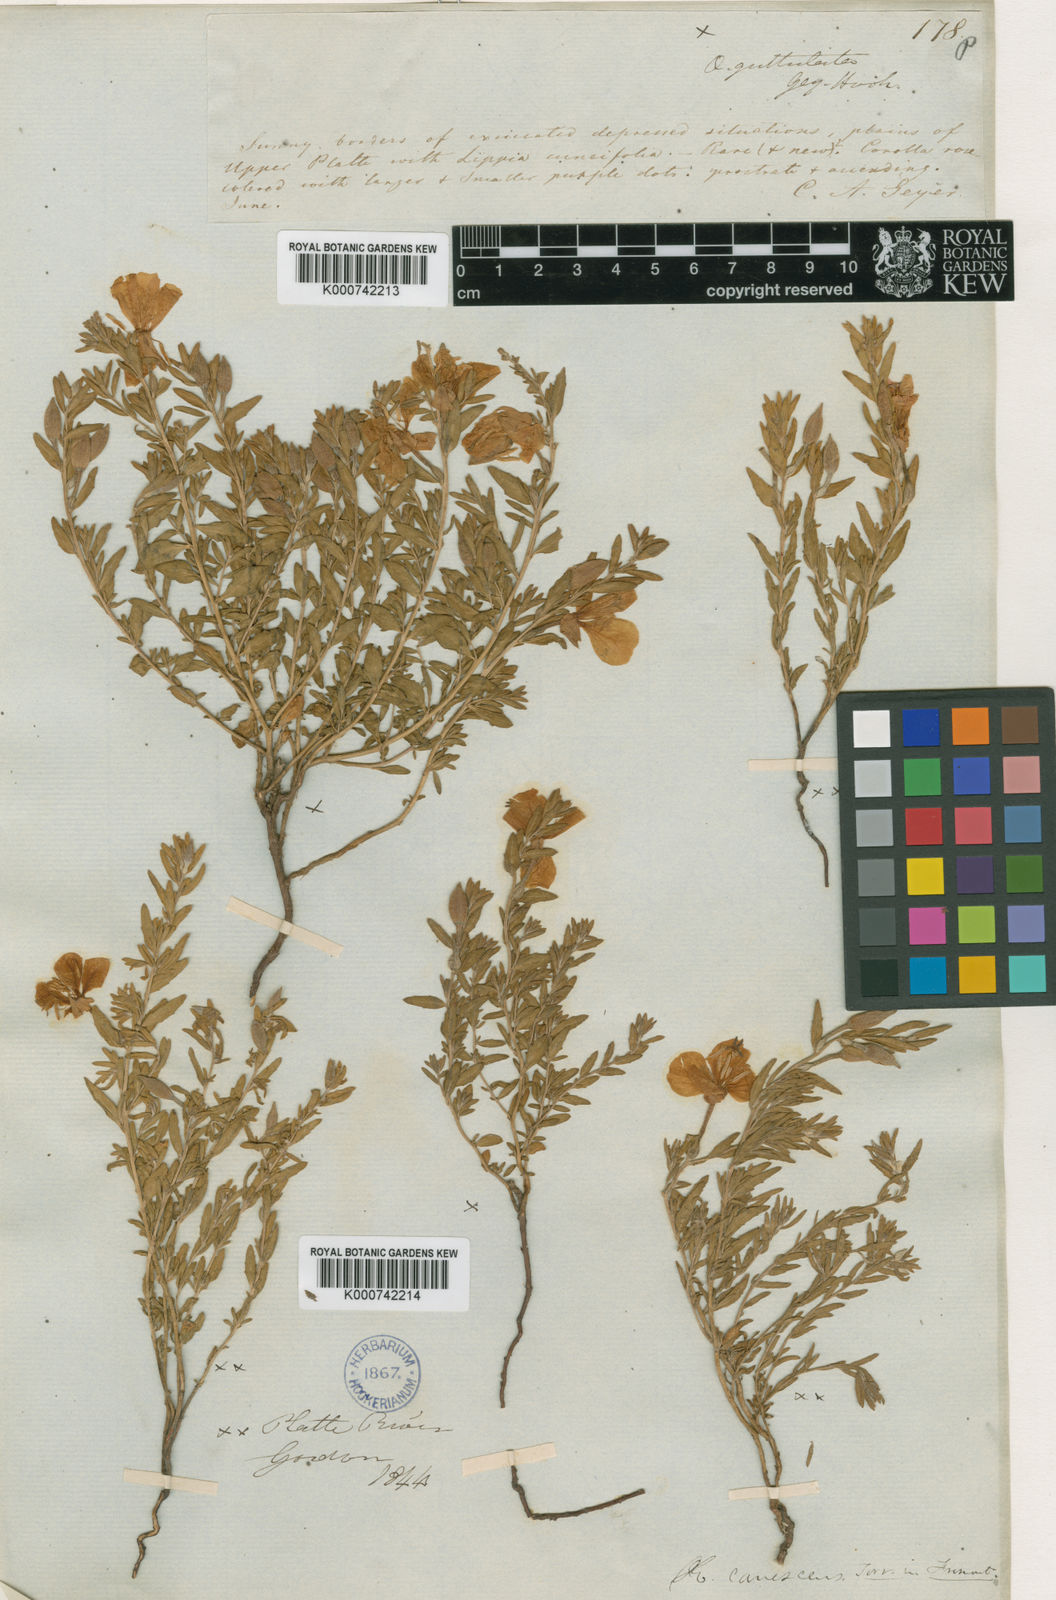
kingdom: Plantae
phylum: Tracheophyta
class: Magnoliopsida
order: Myrtales
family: Onagraceae
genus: Oenothera
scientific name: Oenothera canescens
